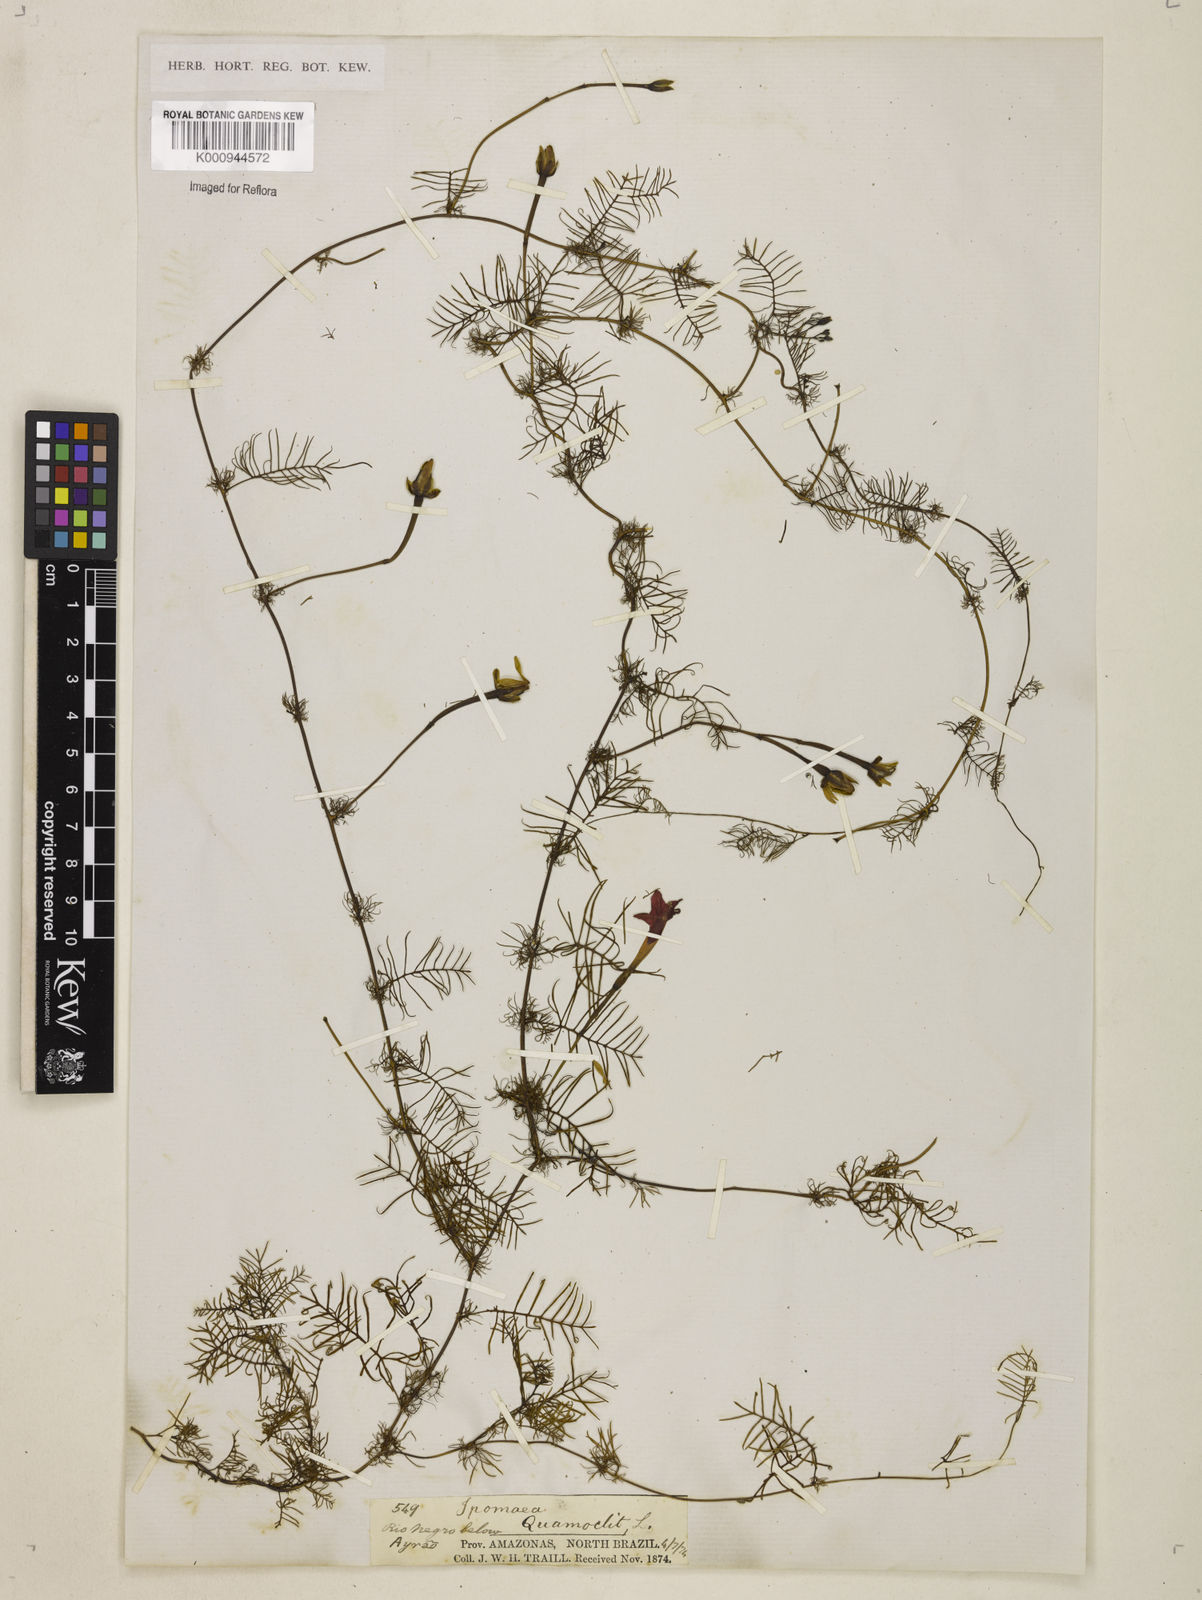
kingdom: Plantae
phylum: Tracheophyta
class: Magnoliopsida
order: Solanales
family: Convolvulaceae
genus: Ipomoea
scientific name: Ipomoea quamoclit
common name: Cypress vine
